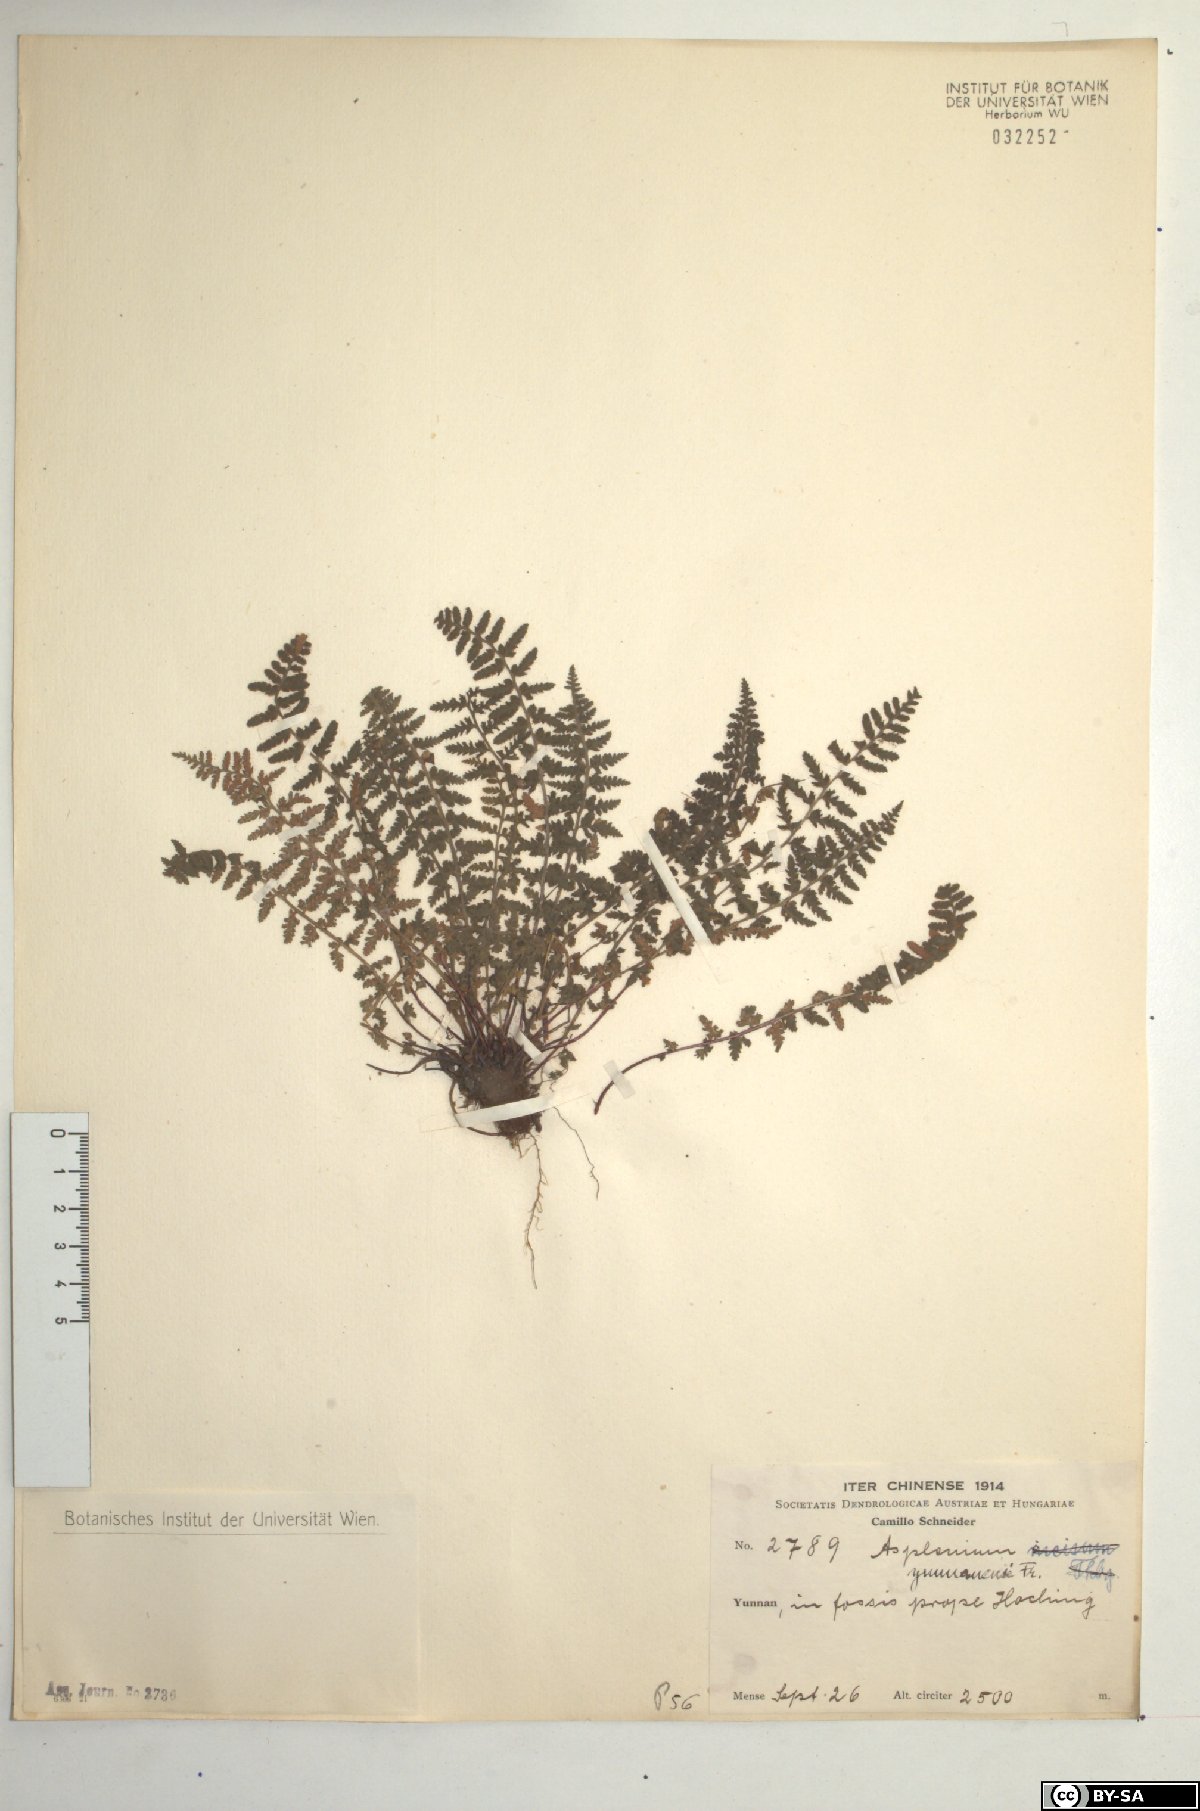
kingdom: Plantae
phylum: Tracheophyta
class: Polypodiopsida
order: Polypodiales
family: Aspleniaceae
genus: Asplenium
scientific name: Asplenium exiguum
